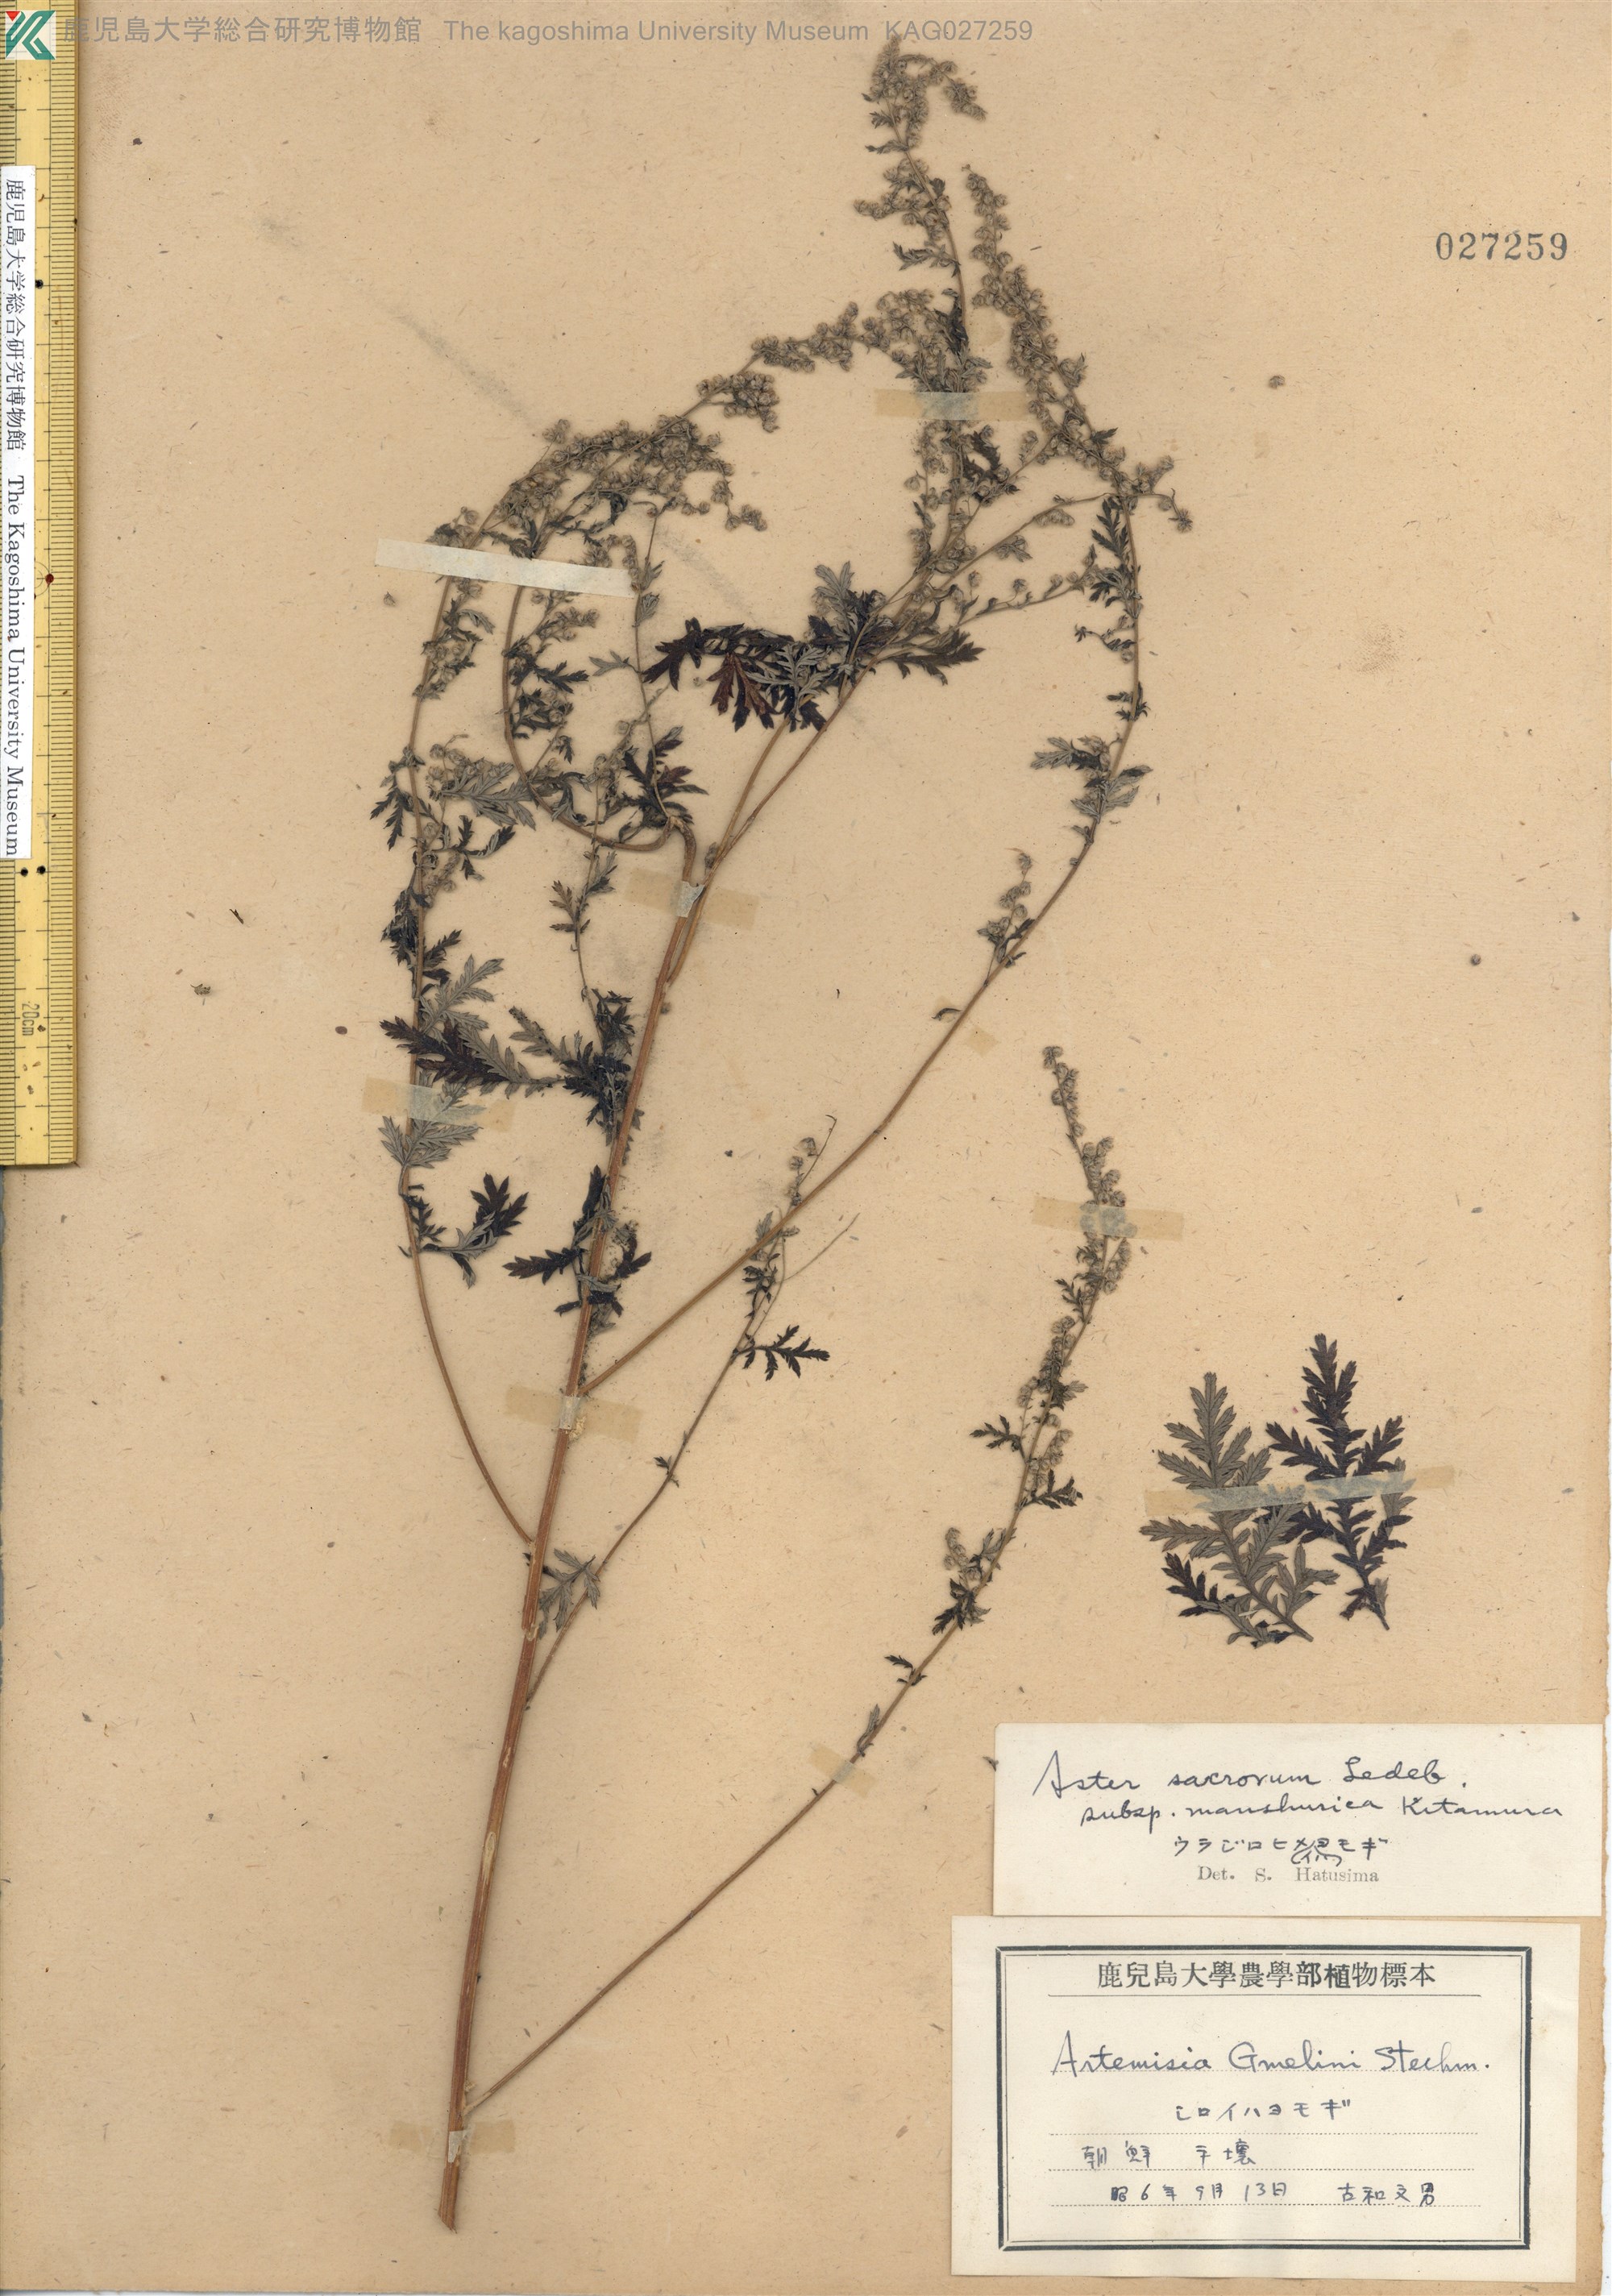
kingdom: Plantae
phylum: Tracheophyta
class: Magnoliopsida
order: Asterales
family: Asteraceae
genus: Artemisia
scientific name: Artemisia gmelinii
